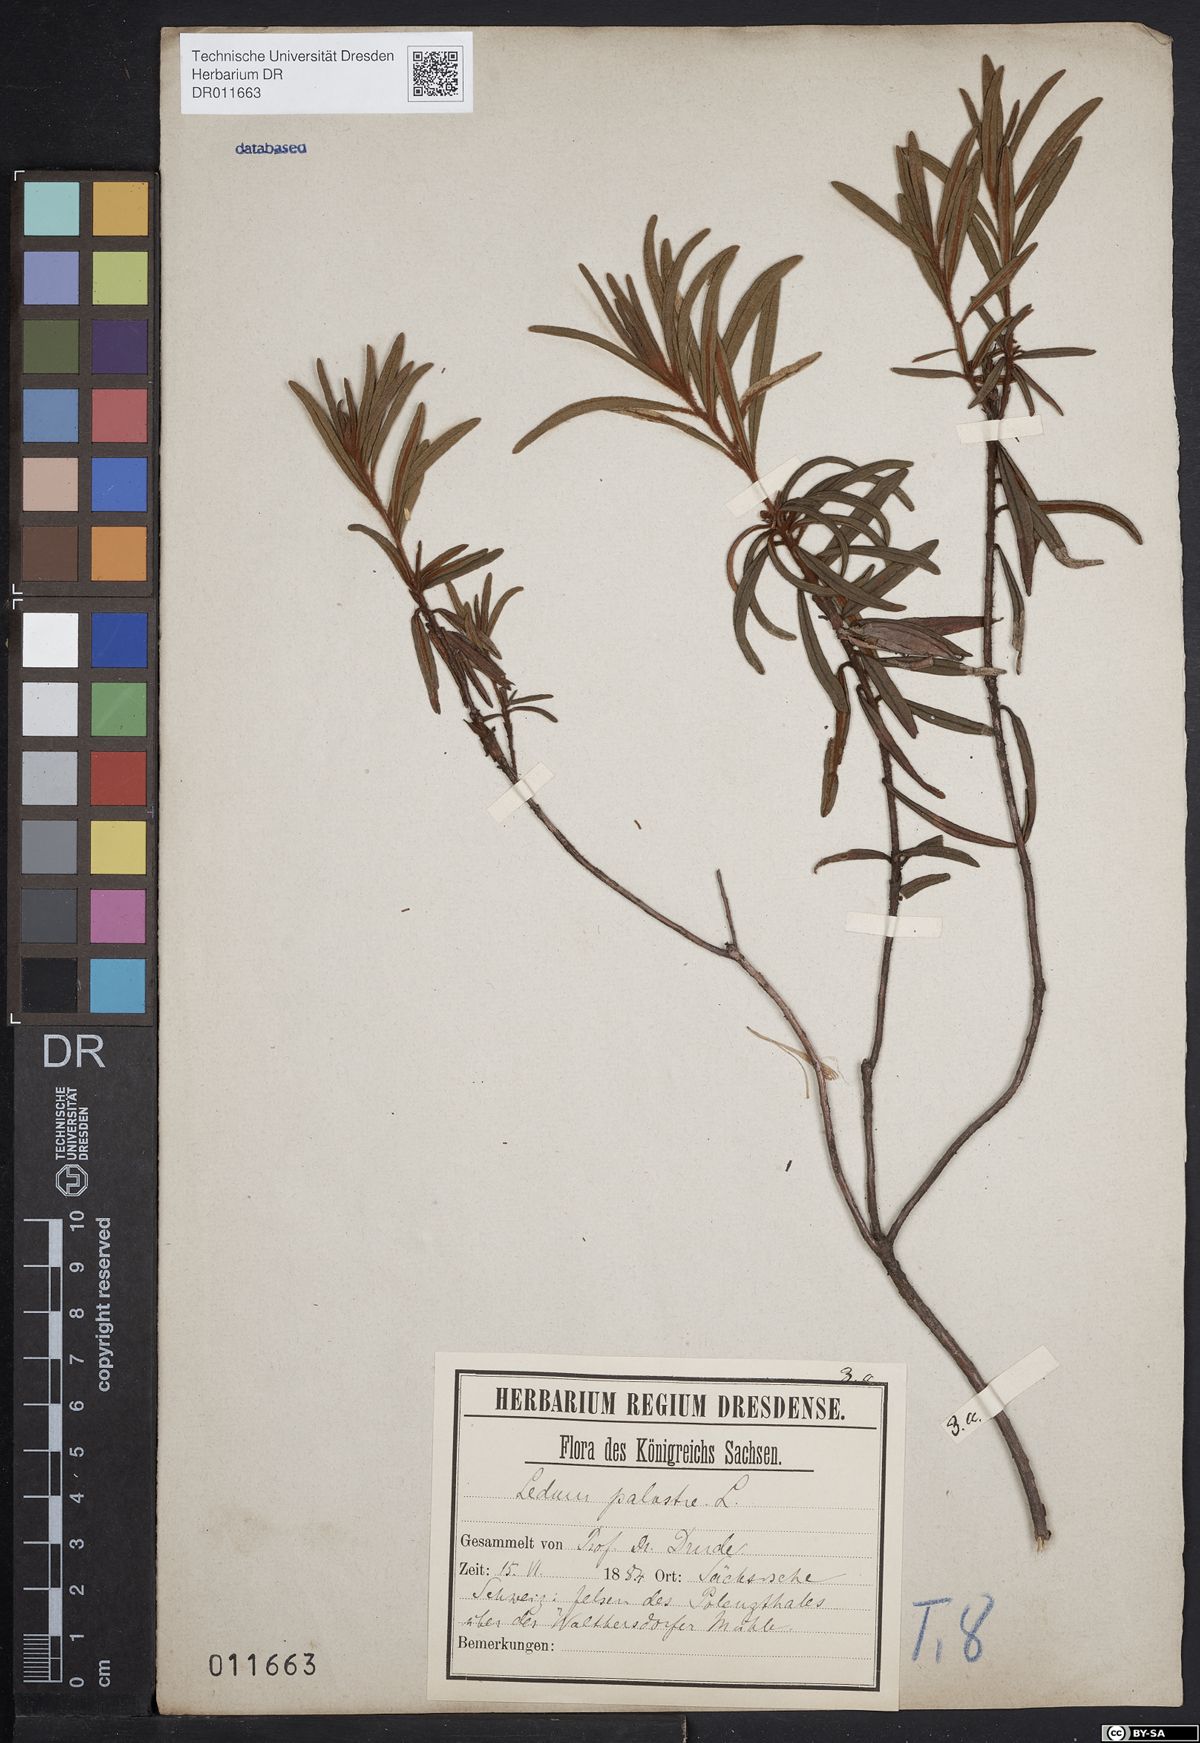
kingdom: Plantae
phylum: Tracheophyta
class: Magnoliopsida
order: Ericales
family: Ericaceae
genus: Rhododendron
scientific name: Rhododendron tomentosum
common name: Marsh labrador tea
